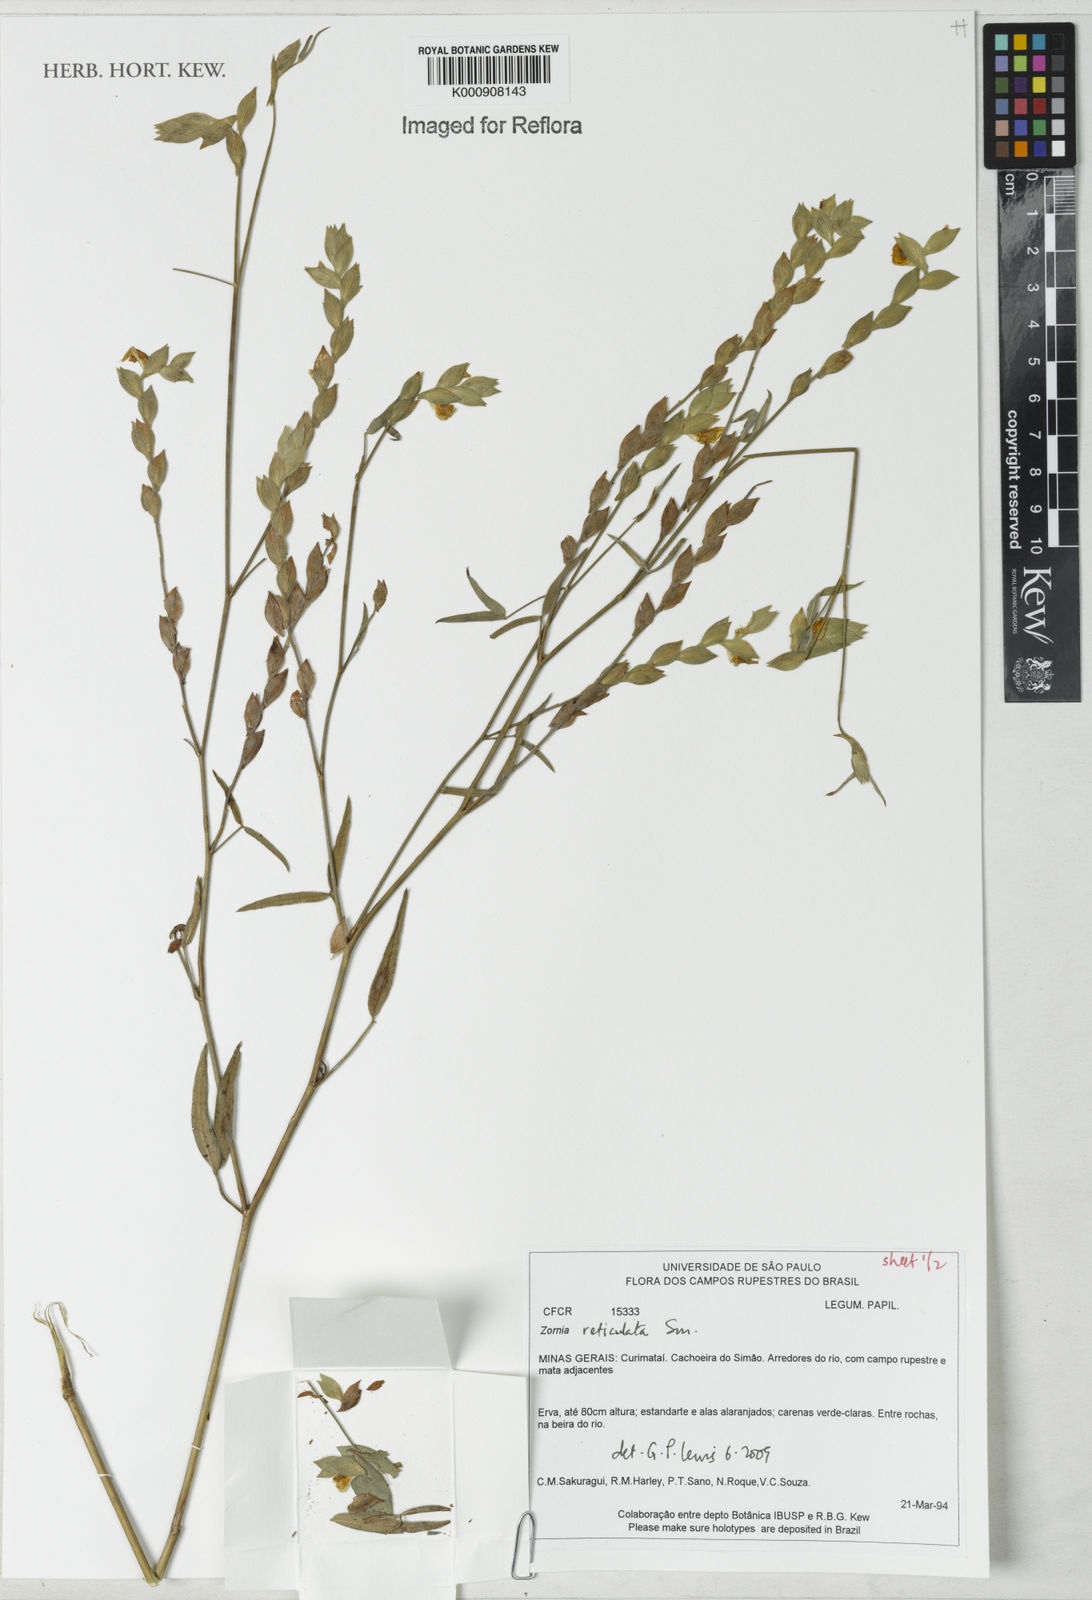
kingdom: Plantae
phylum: Tracheophyta
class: Magnoliopsida
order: Fabales
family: Fabaceae
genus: Zornia
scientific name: Zornia reticulata
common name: Reticulate viperina
